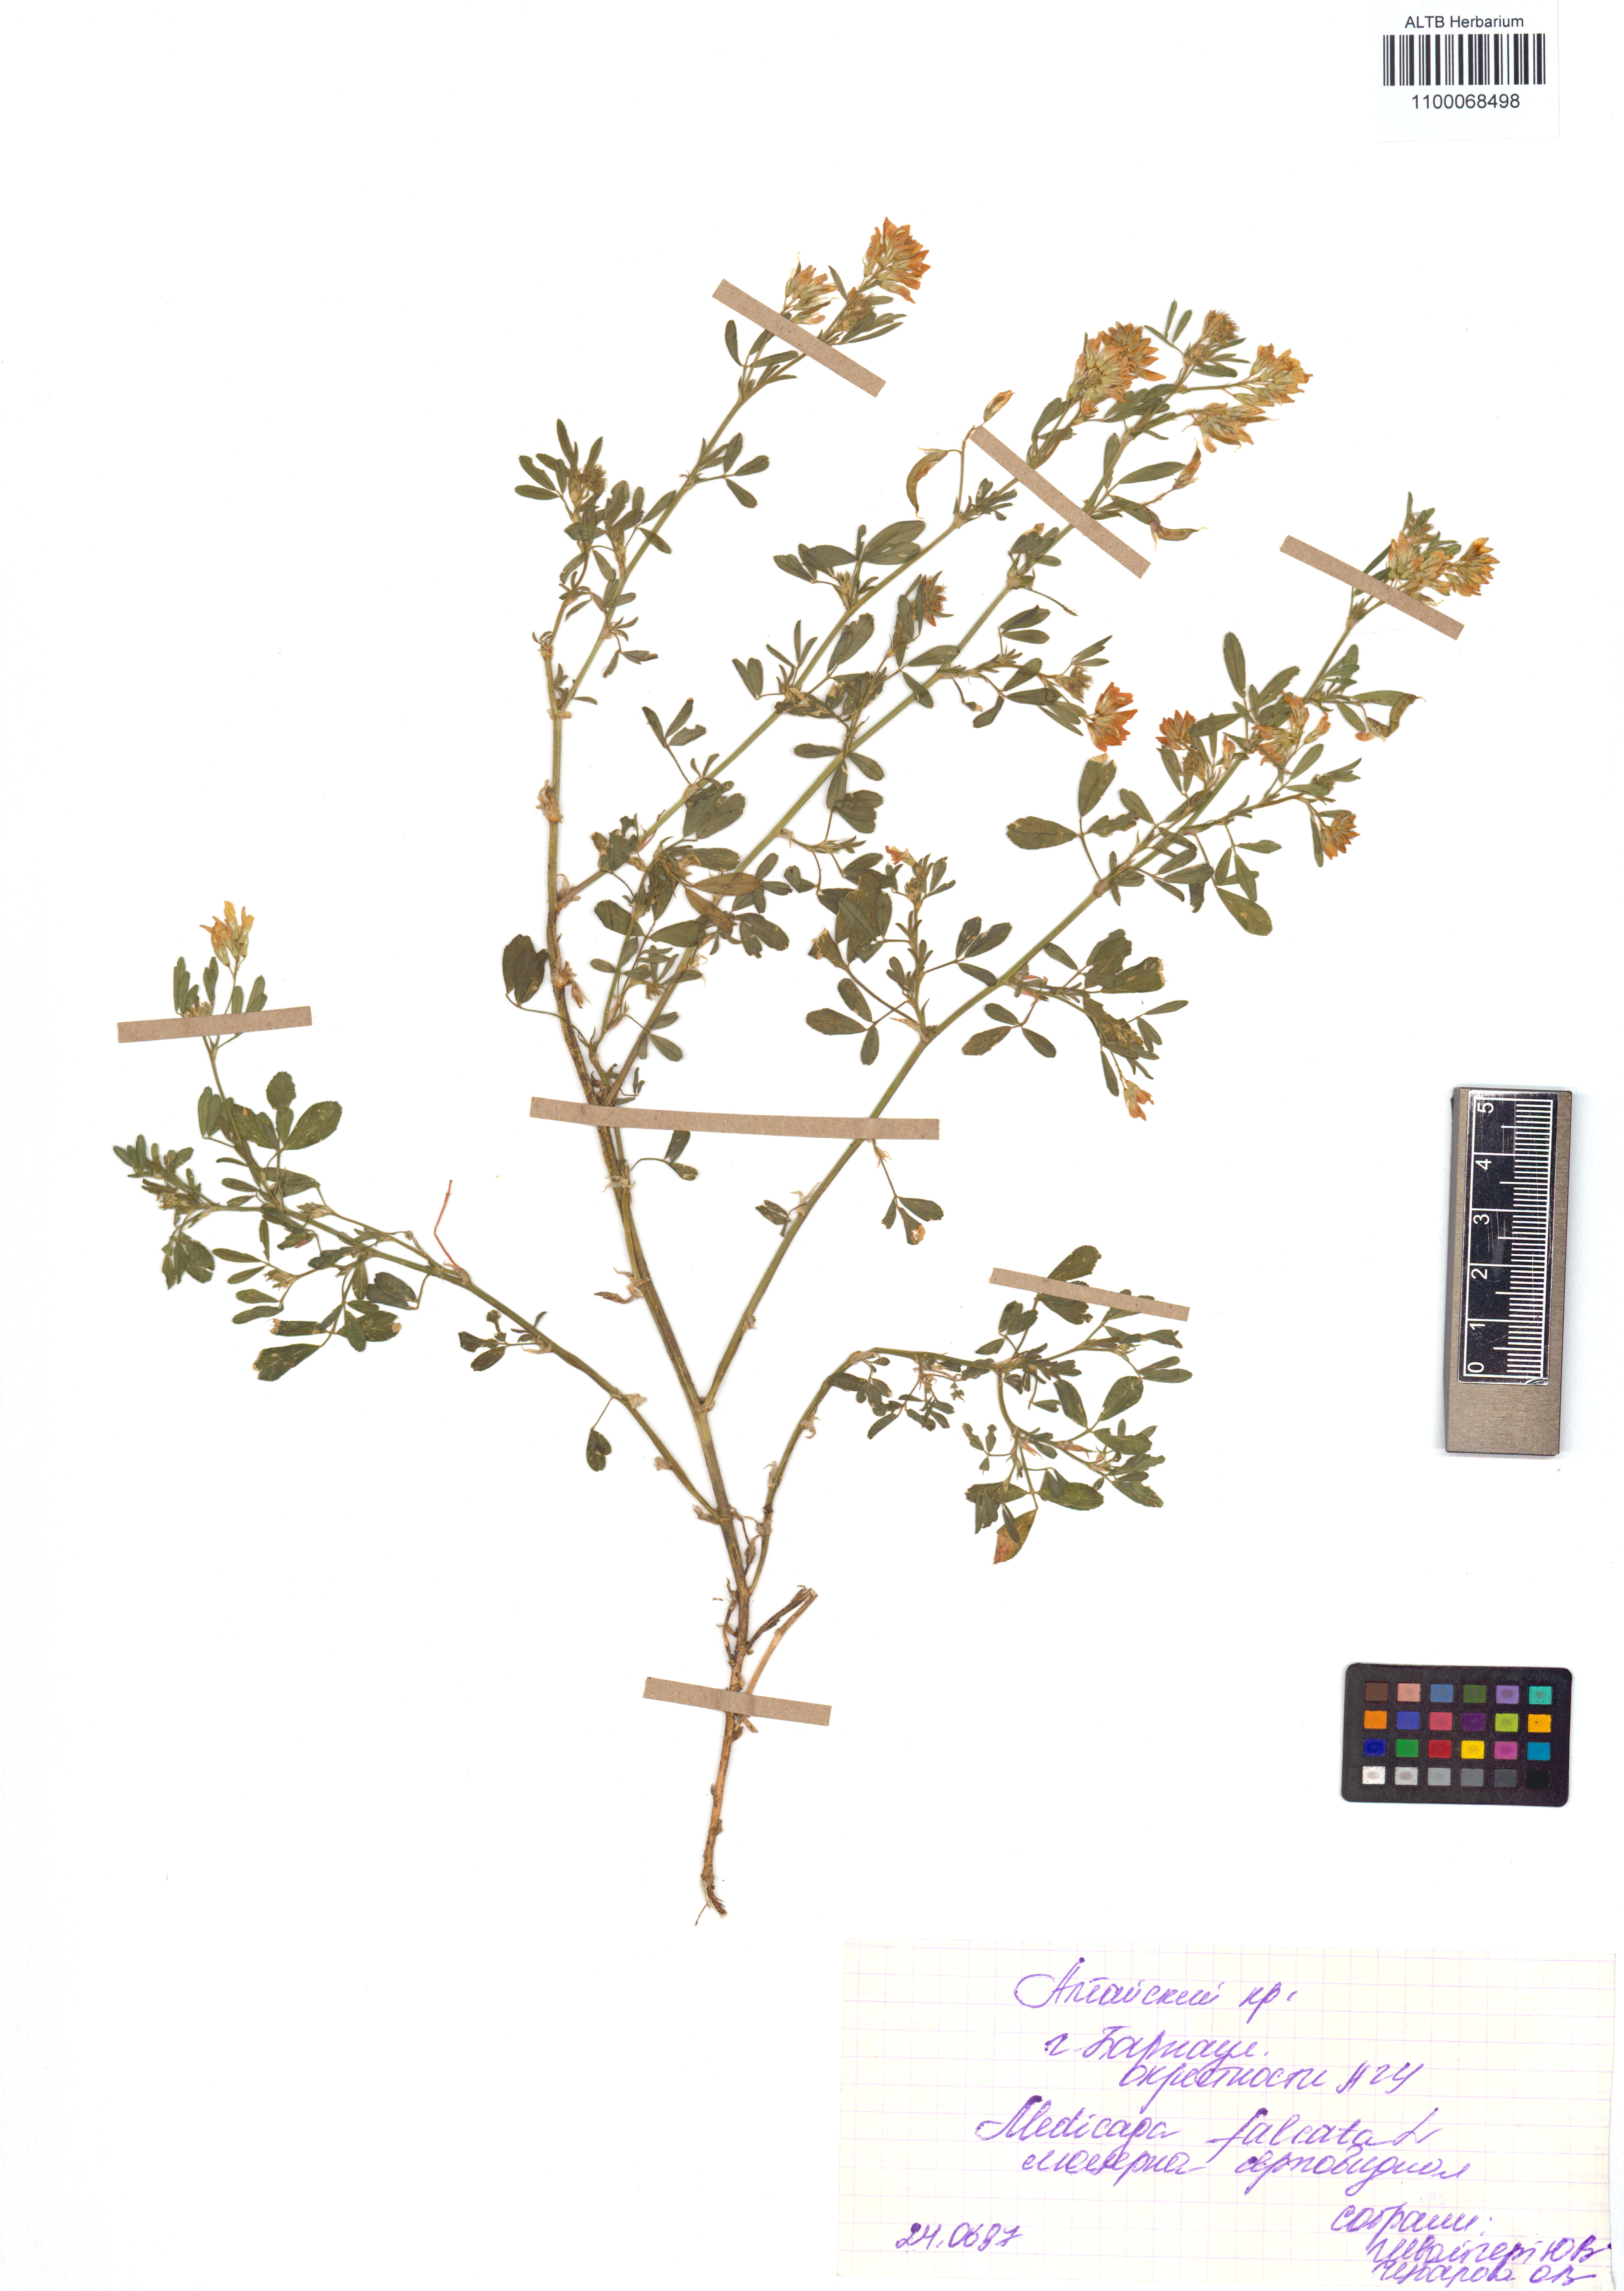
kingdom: Plantae
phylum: Tracheophyta
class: Magnoliopsida
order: Fabales
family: Fabaceae
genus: Medicago
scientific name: Medicago falcata
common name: Sickle medick
